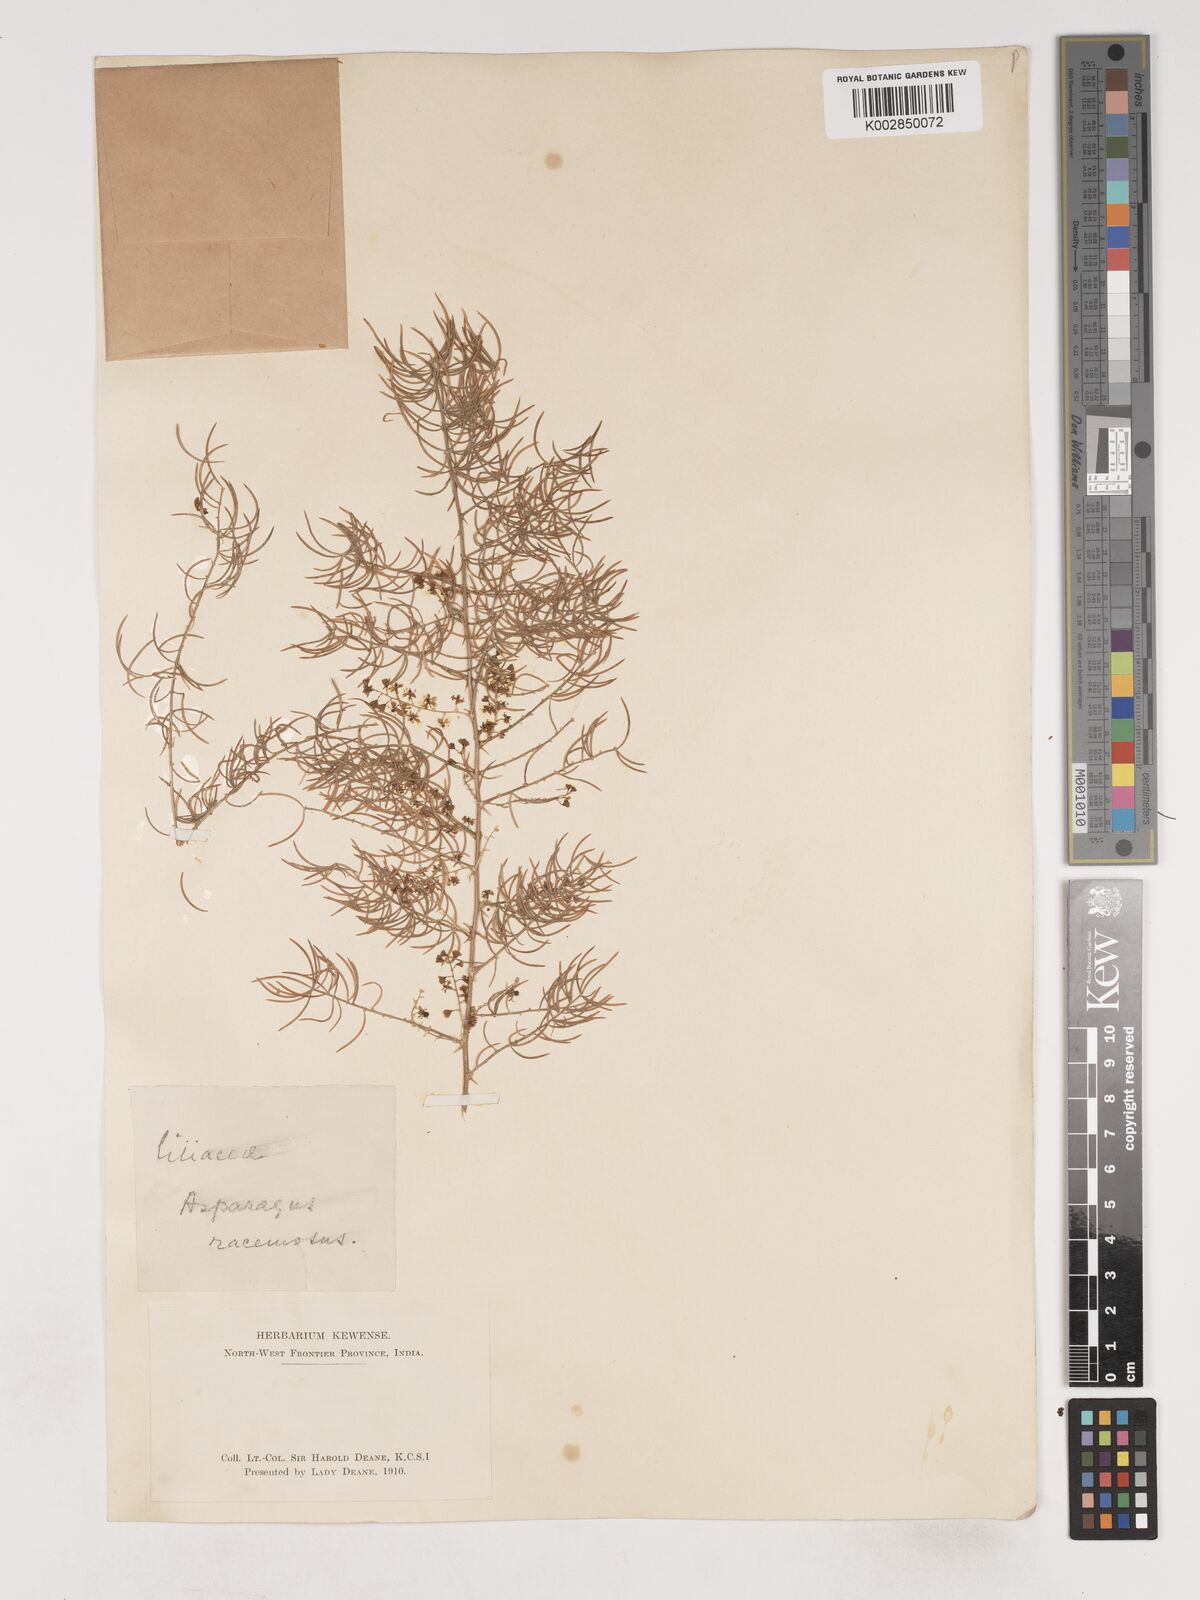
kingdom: Plantae
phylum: Tracheophyta
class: Liliopsida
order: Asparagales
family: Asparagaceae
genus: Asparagus
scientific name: Asparagus racemosus
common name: Asparagus-fern
